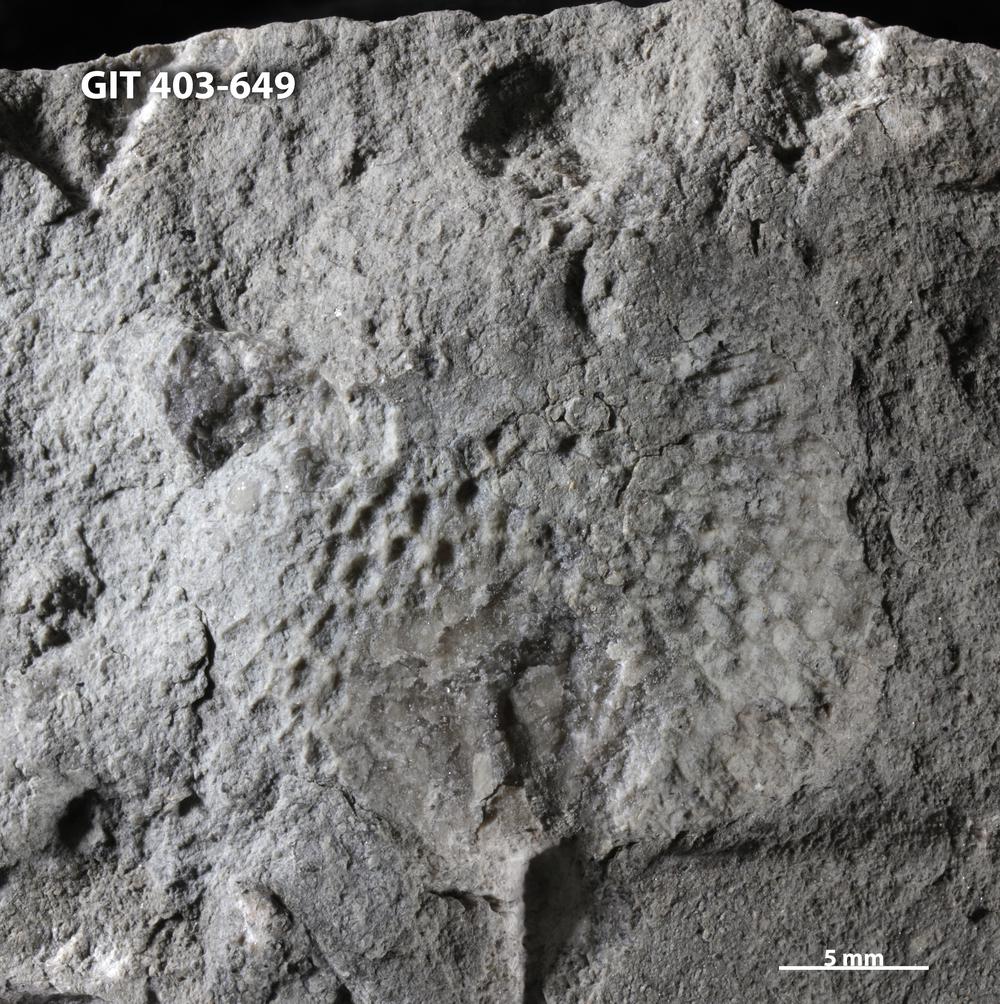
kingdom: Animalia
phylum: Cnidaria
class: Anthozoa
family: Favositidae
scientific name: Favositidae
